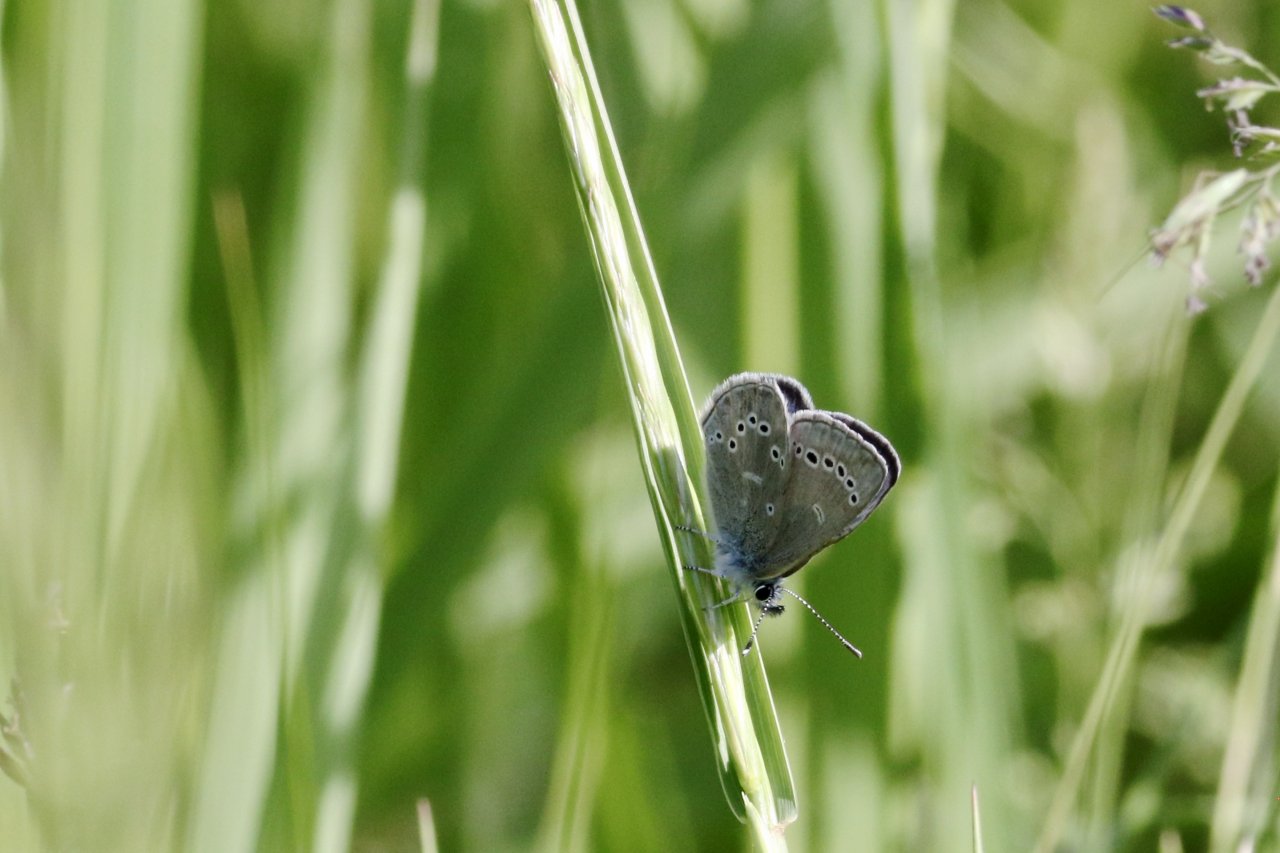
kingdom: Animalia
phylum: Arthropoda
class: Insecta
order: Lepidoptera
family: Lycaenidae
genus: Glaucopsyche
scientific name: Glaucopsyche lygdamus
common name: Silvery Blue
